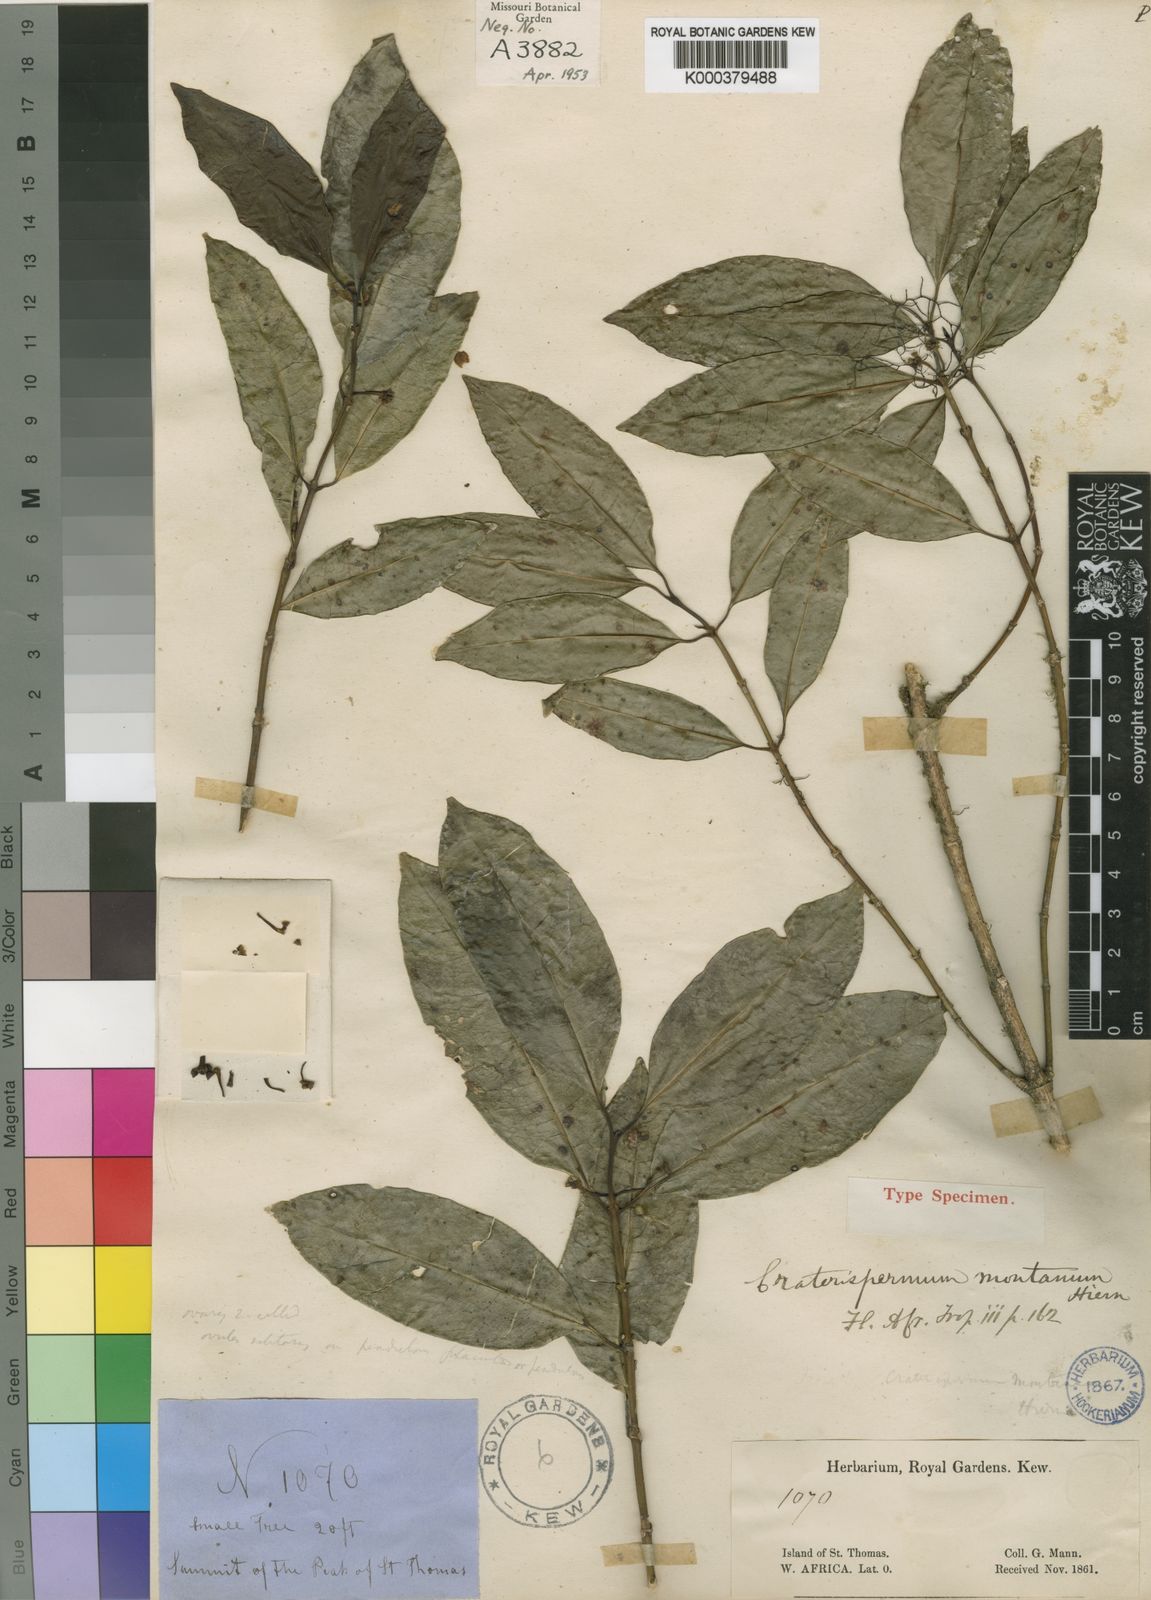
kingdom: Plantae
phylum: Tracheophyta
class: Magnoliopsida
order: Gentianales
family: Rubiaceae
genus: Craterispermum
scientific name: Craterispermum montanum
